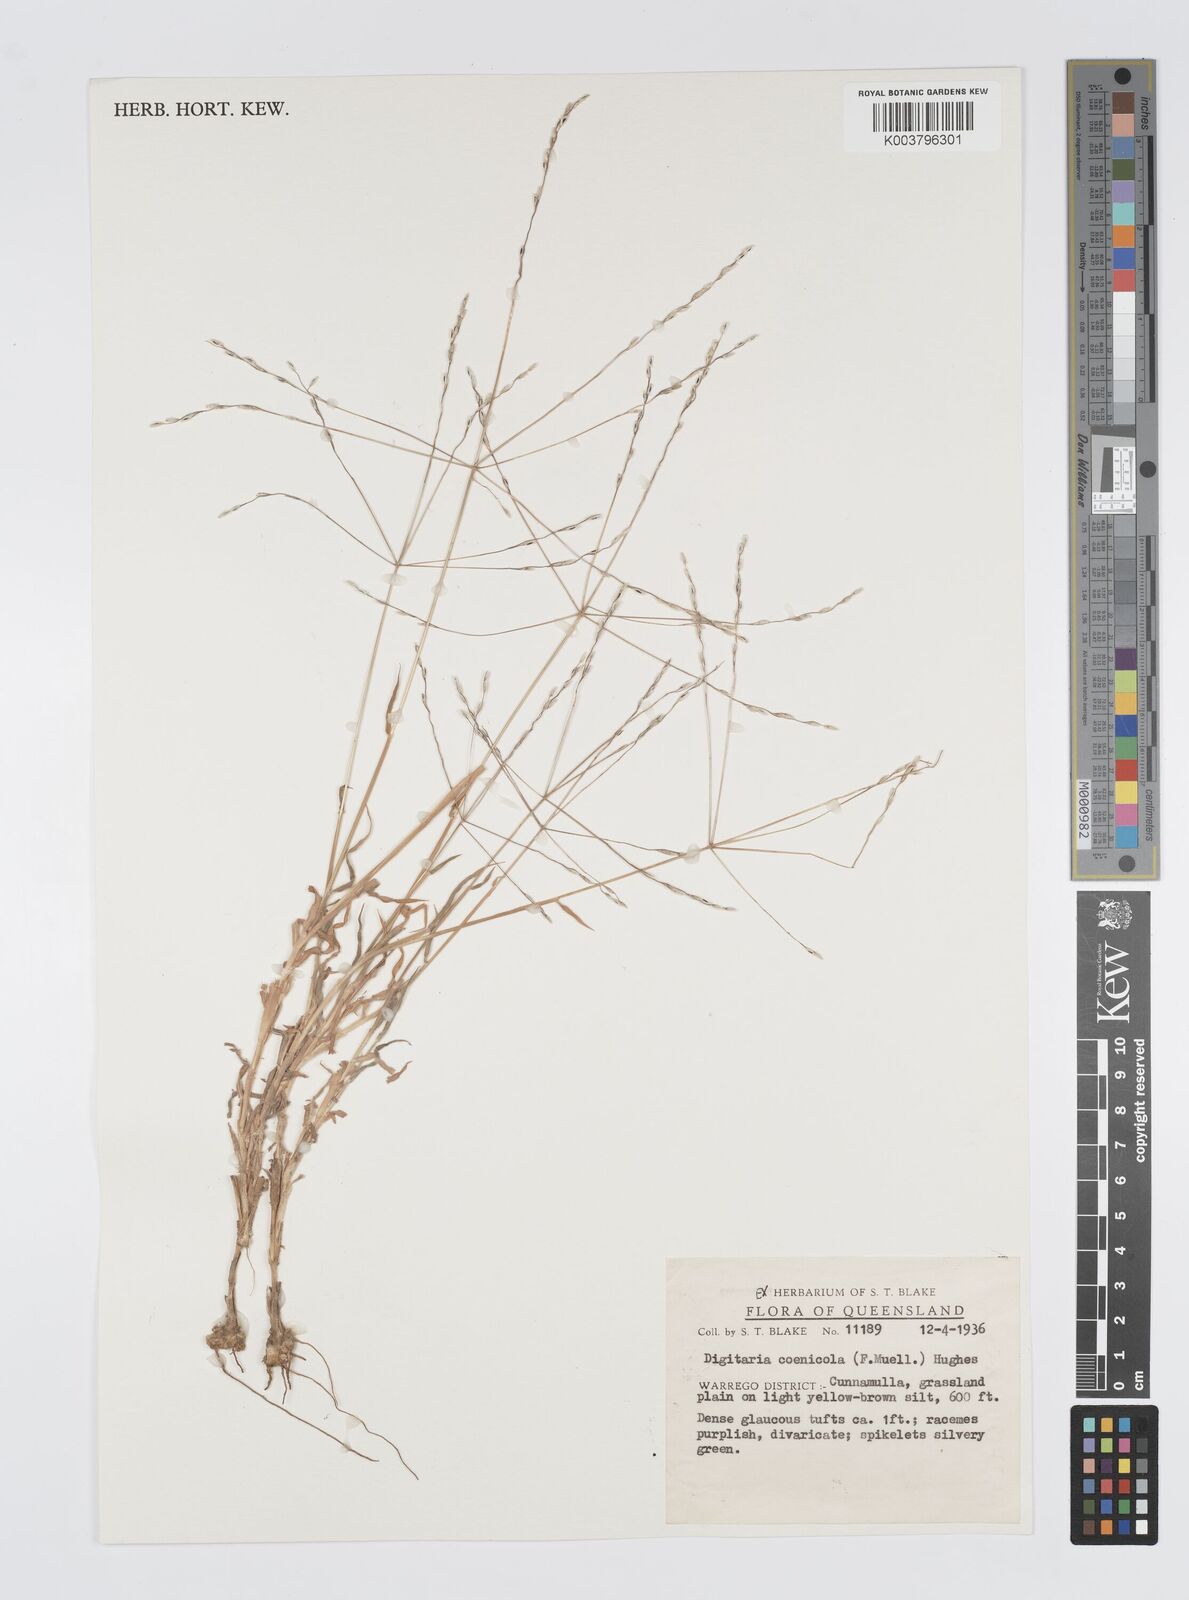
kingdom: Plantae
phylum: Tracheophyta
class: Liliopsida
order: Poales
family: Poaceae
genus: Digitaria
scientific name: Digitaria coenicola
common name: Kanta grass
